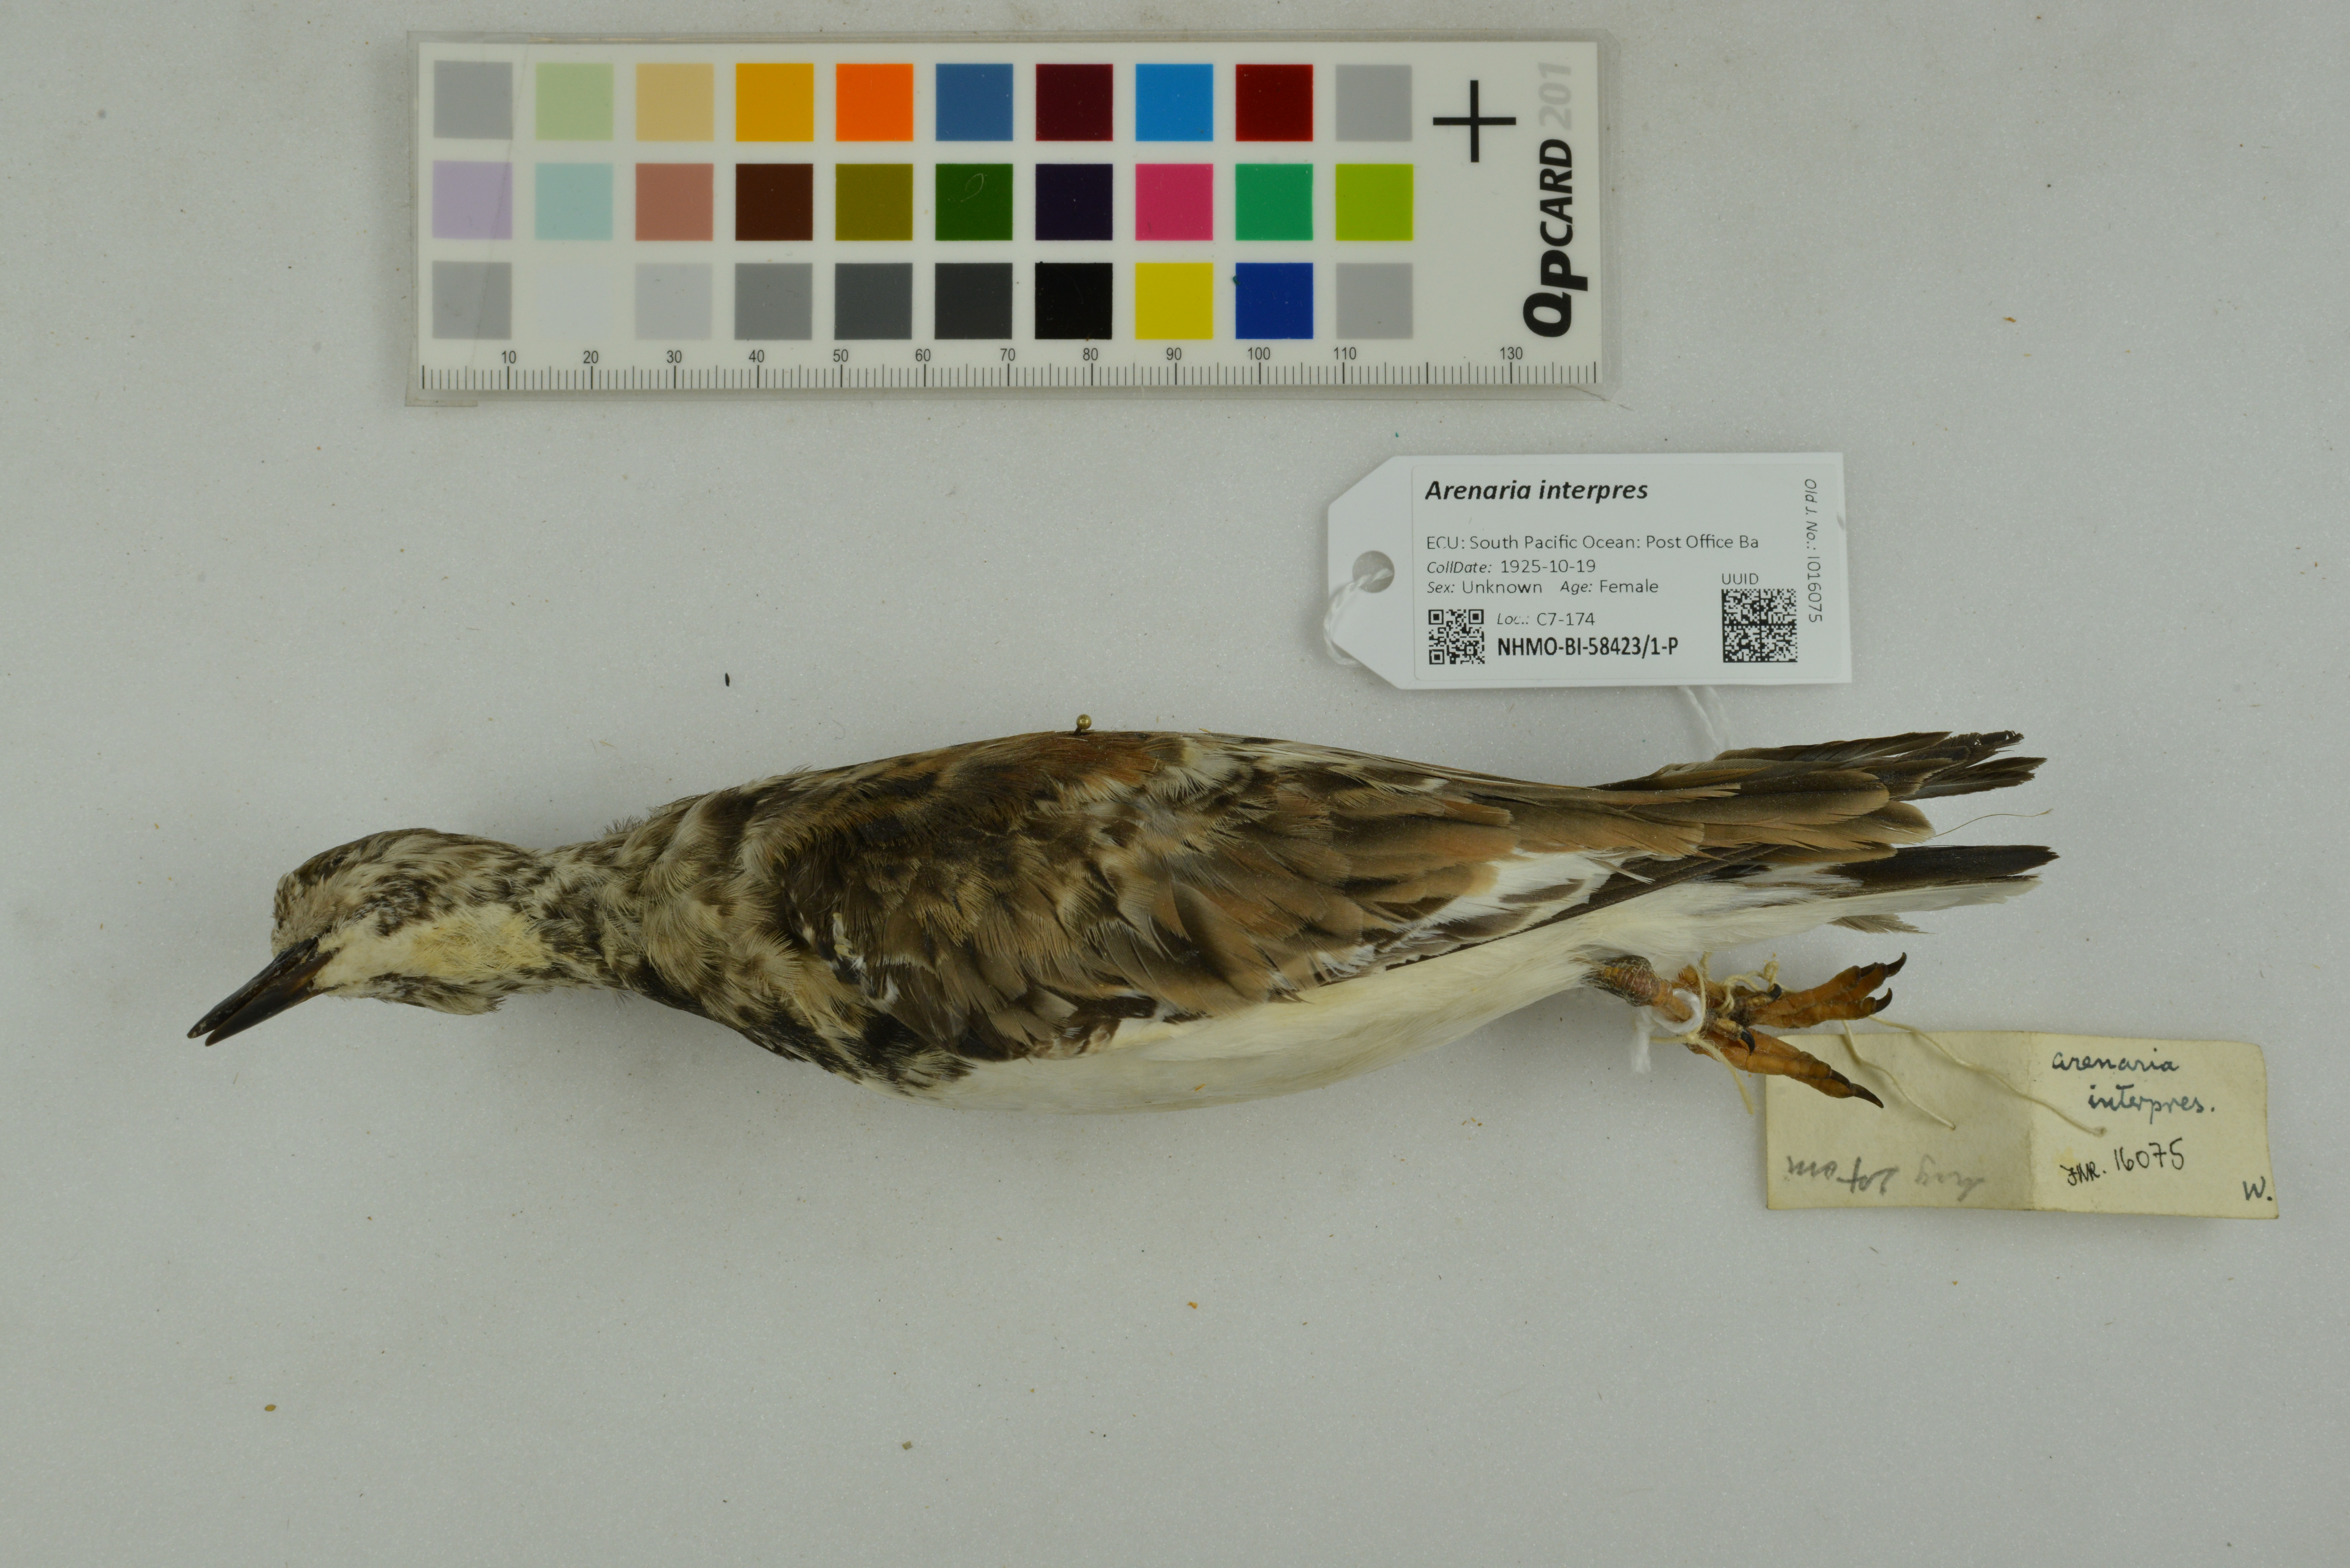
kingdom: Animalia
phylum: Chordata
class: Aves
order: Charadriiformes
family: Scolopacidae
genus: Arenaria
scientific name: Arenaria interpres
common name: Ruddy turnstone
